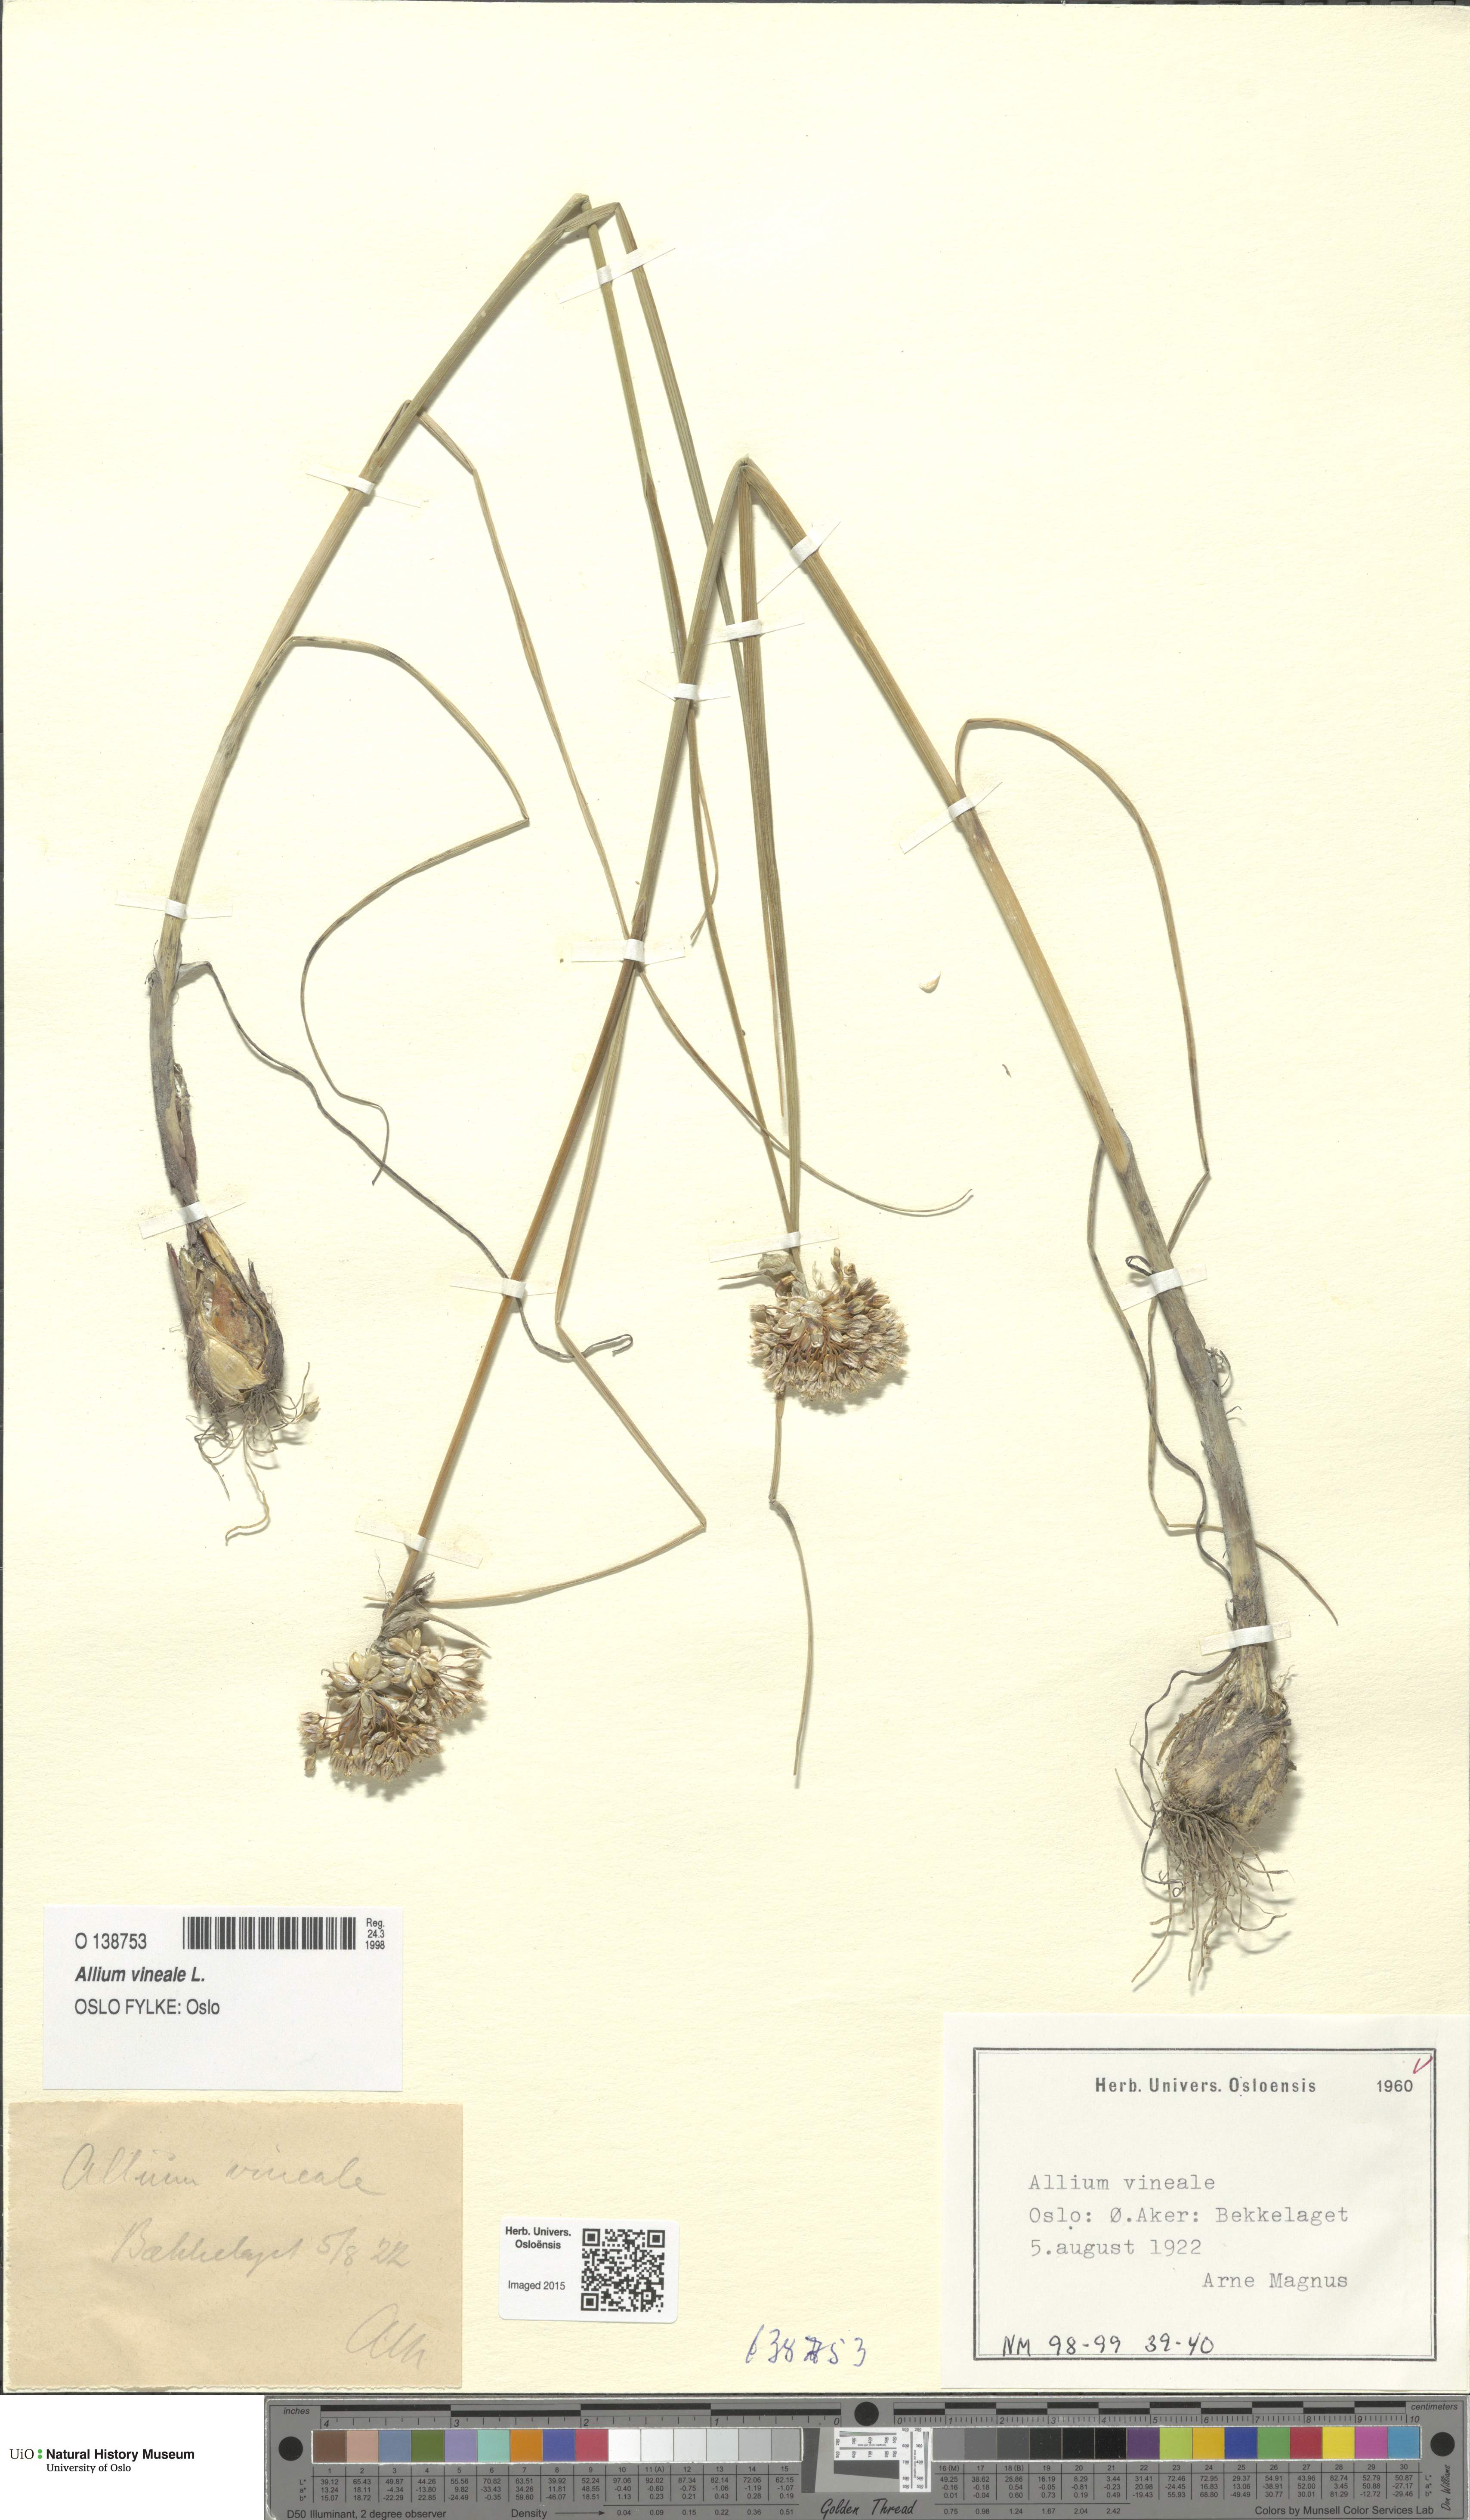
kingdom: Plantae
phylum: Tracheophyta
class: Liliopsida
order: Asparagales
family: Amaryllidaceae
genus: Allium
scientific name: Allium vineale
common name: Crow garlic
